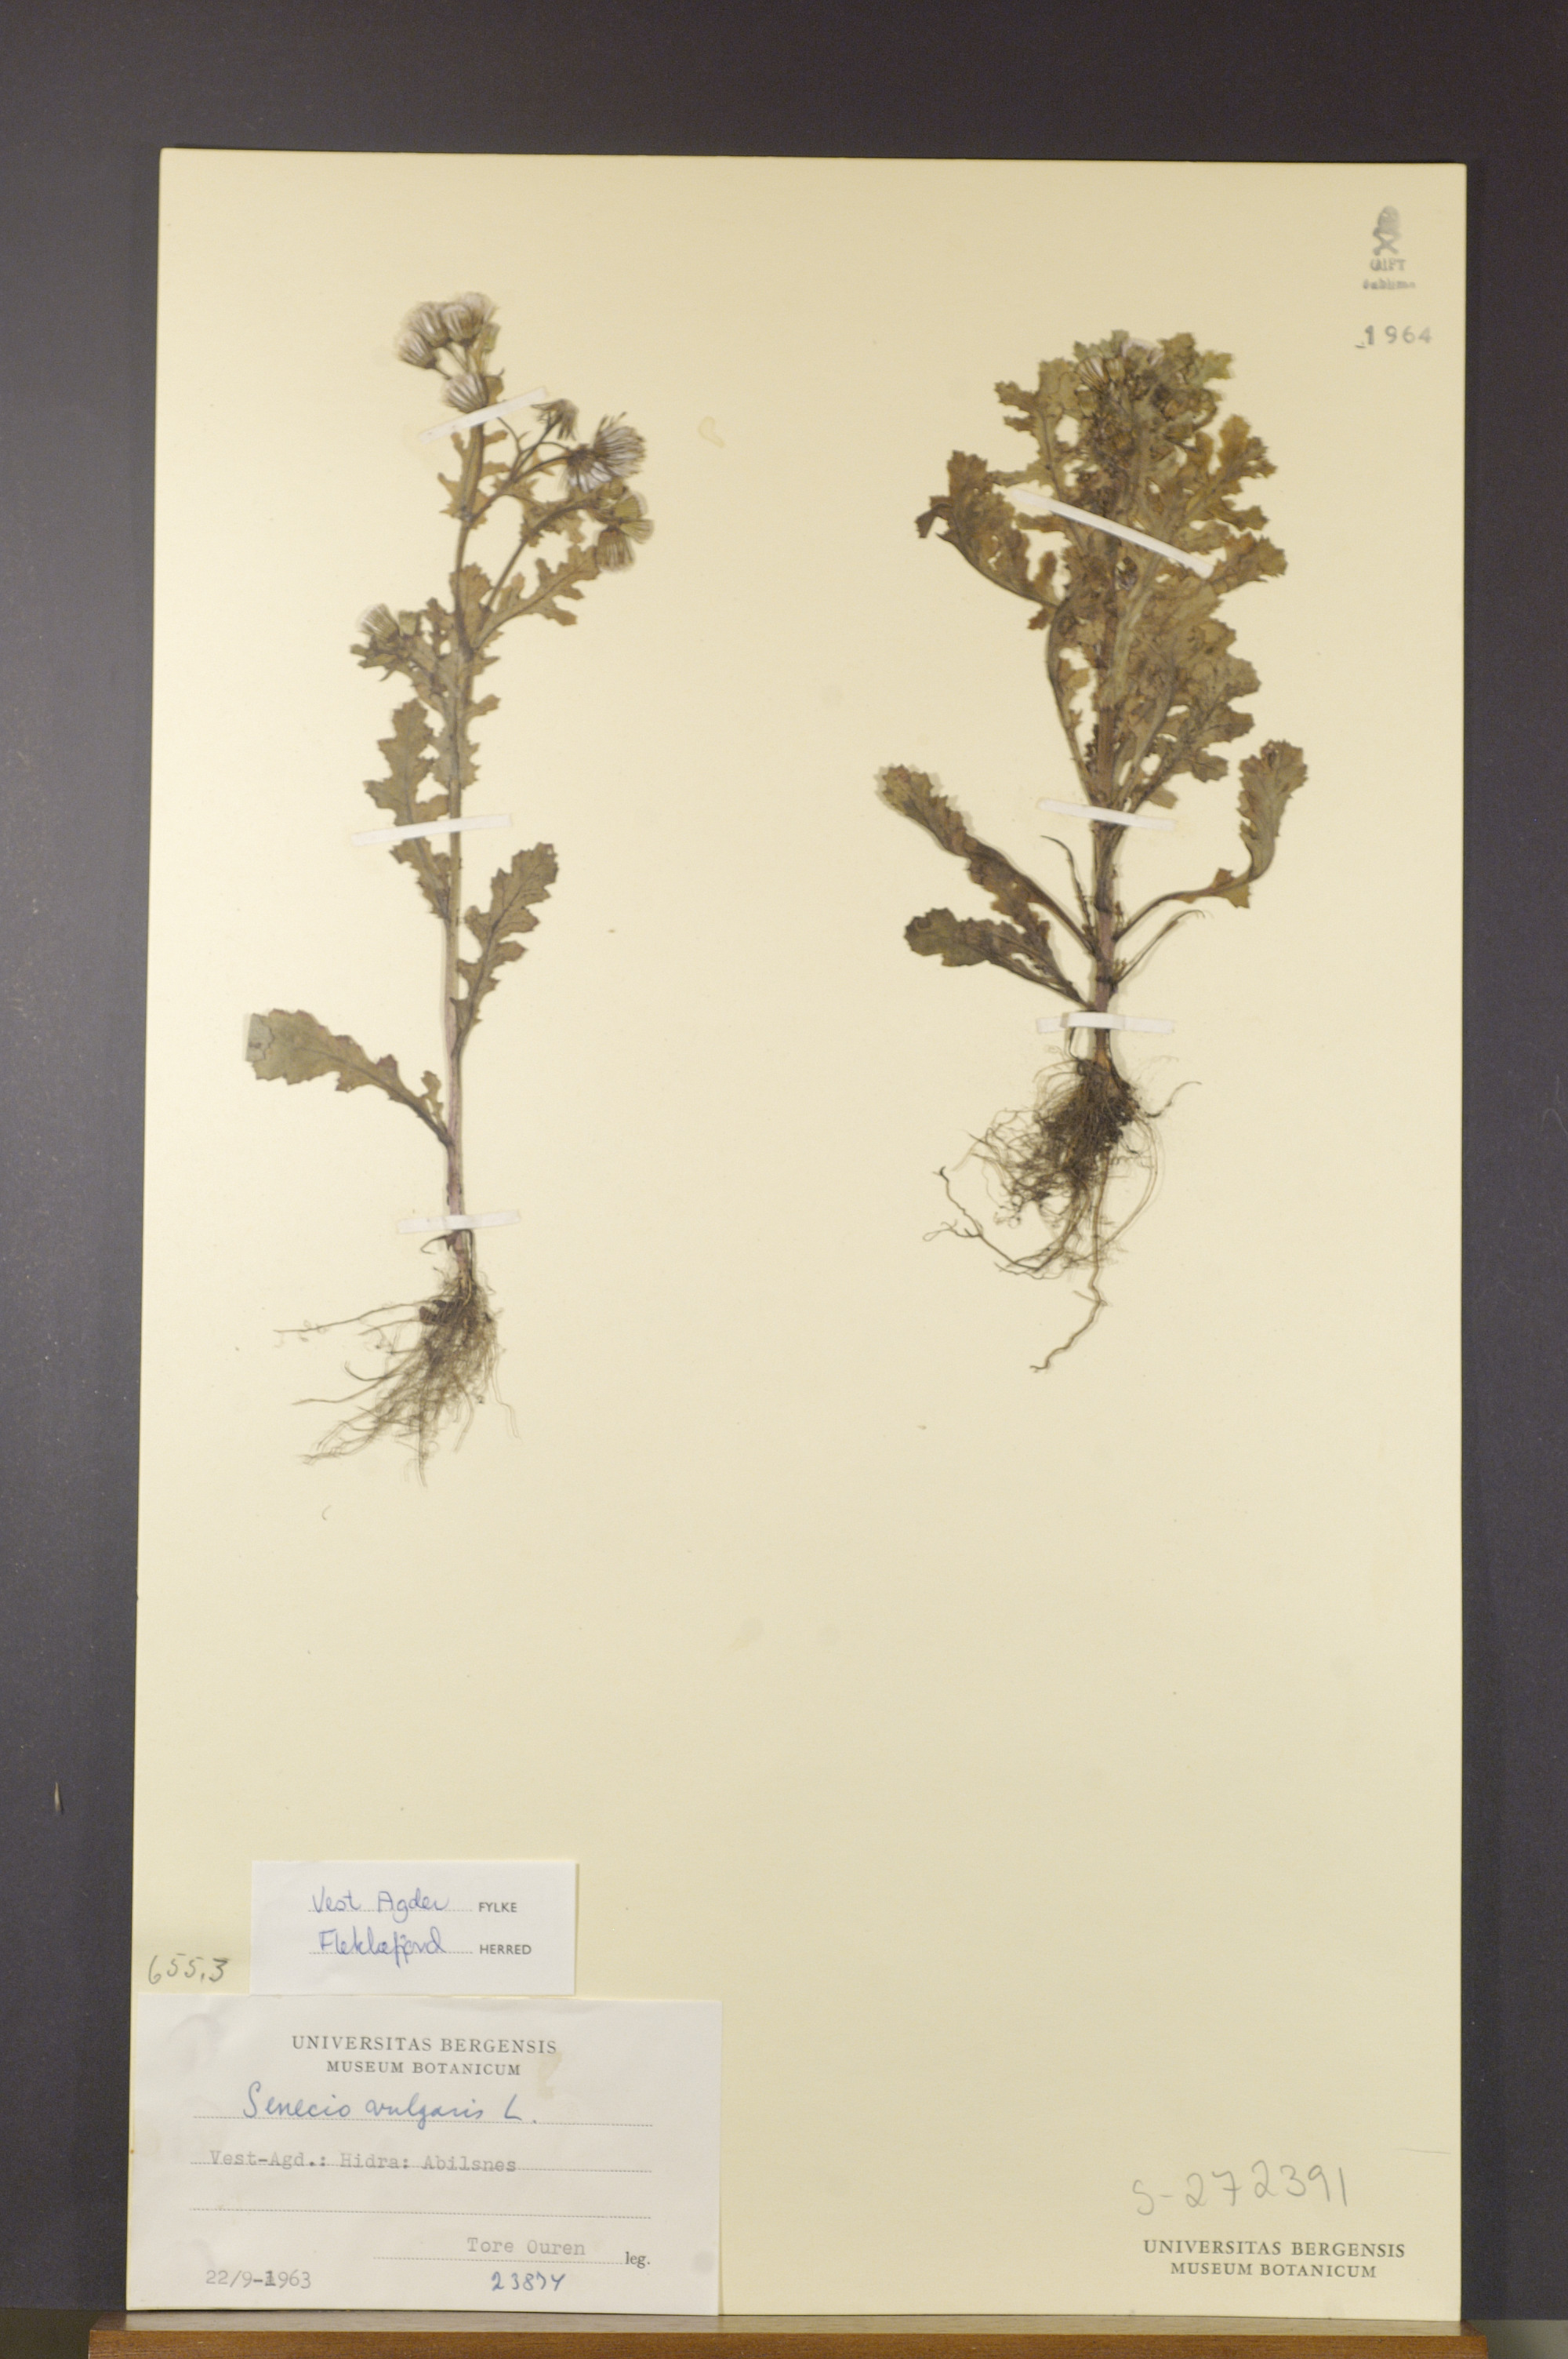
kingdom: Plantae
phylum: Tracheophyta
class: Magnoliopsida
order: Asterales
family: Asteraceae
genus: Senecio
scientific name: Senecio vulgaris
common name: Old-man-in-the-spring
